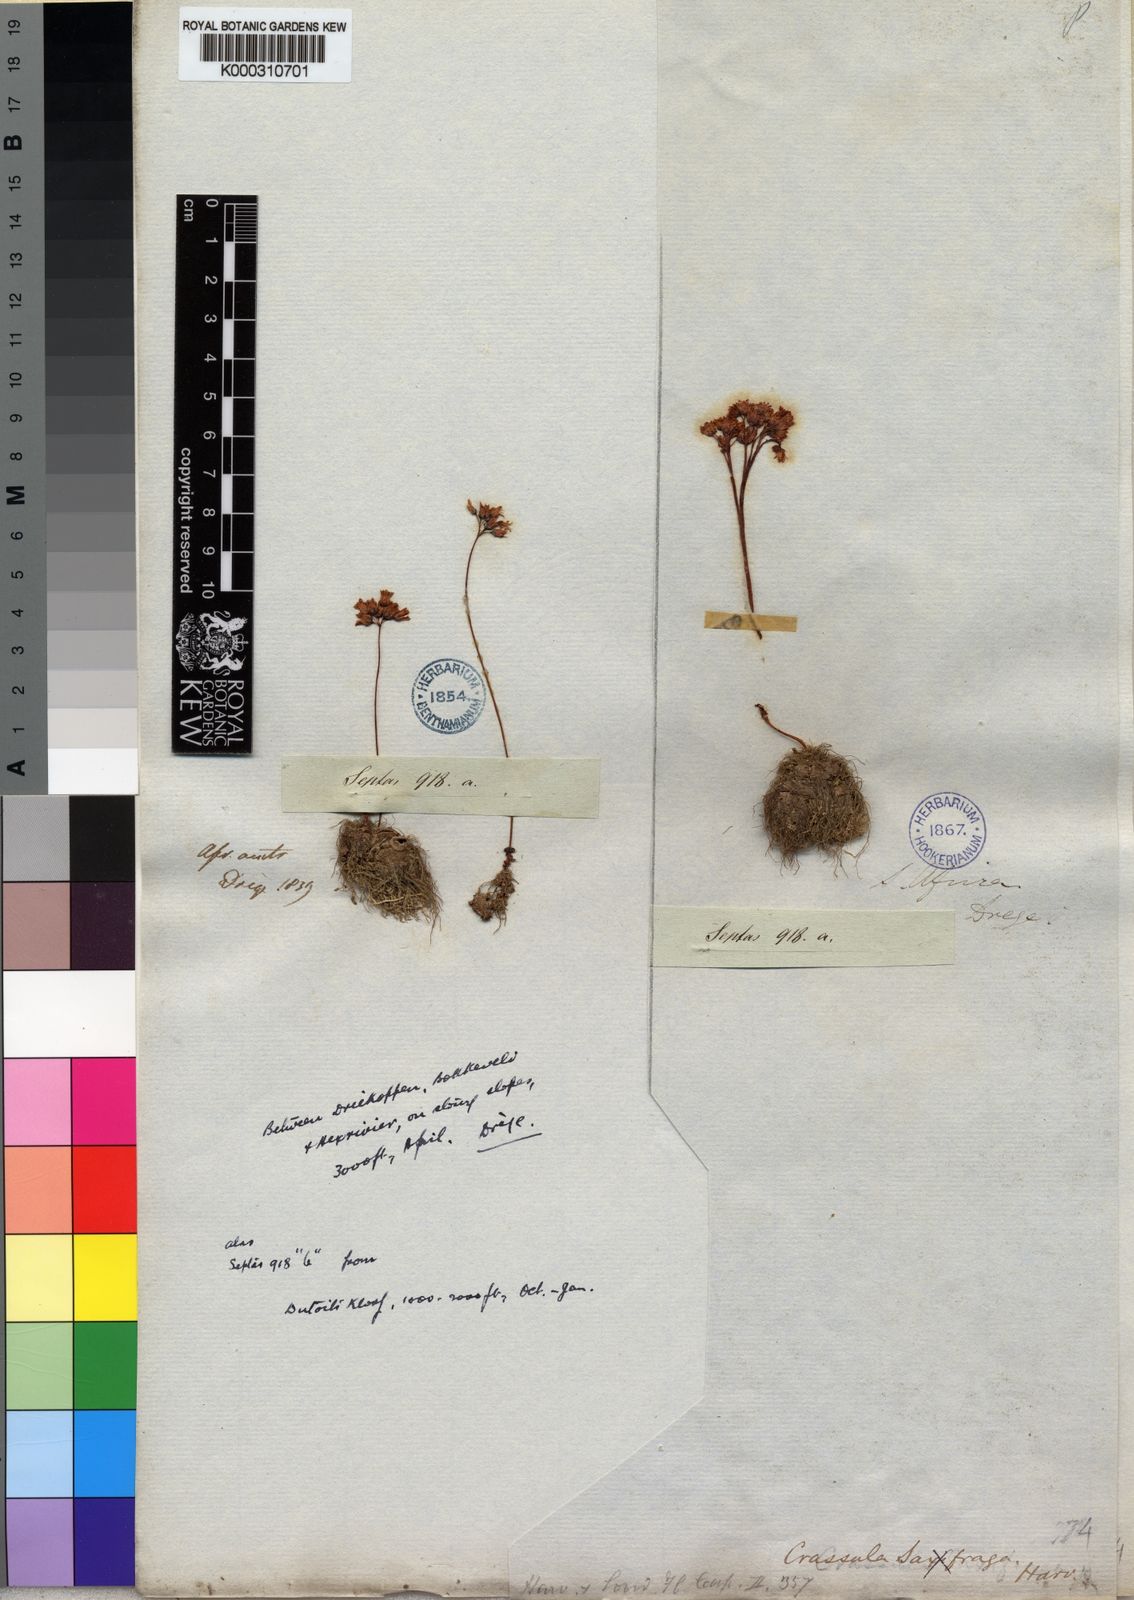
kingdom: Plantae
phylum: Tracheophyta
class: Magnoliopsida
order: Saxifragales
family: Crassulaceae
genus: Crassula
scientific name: Crassula saxifraga
